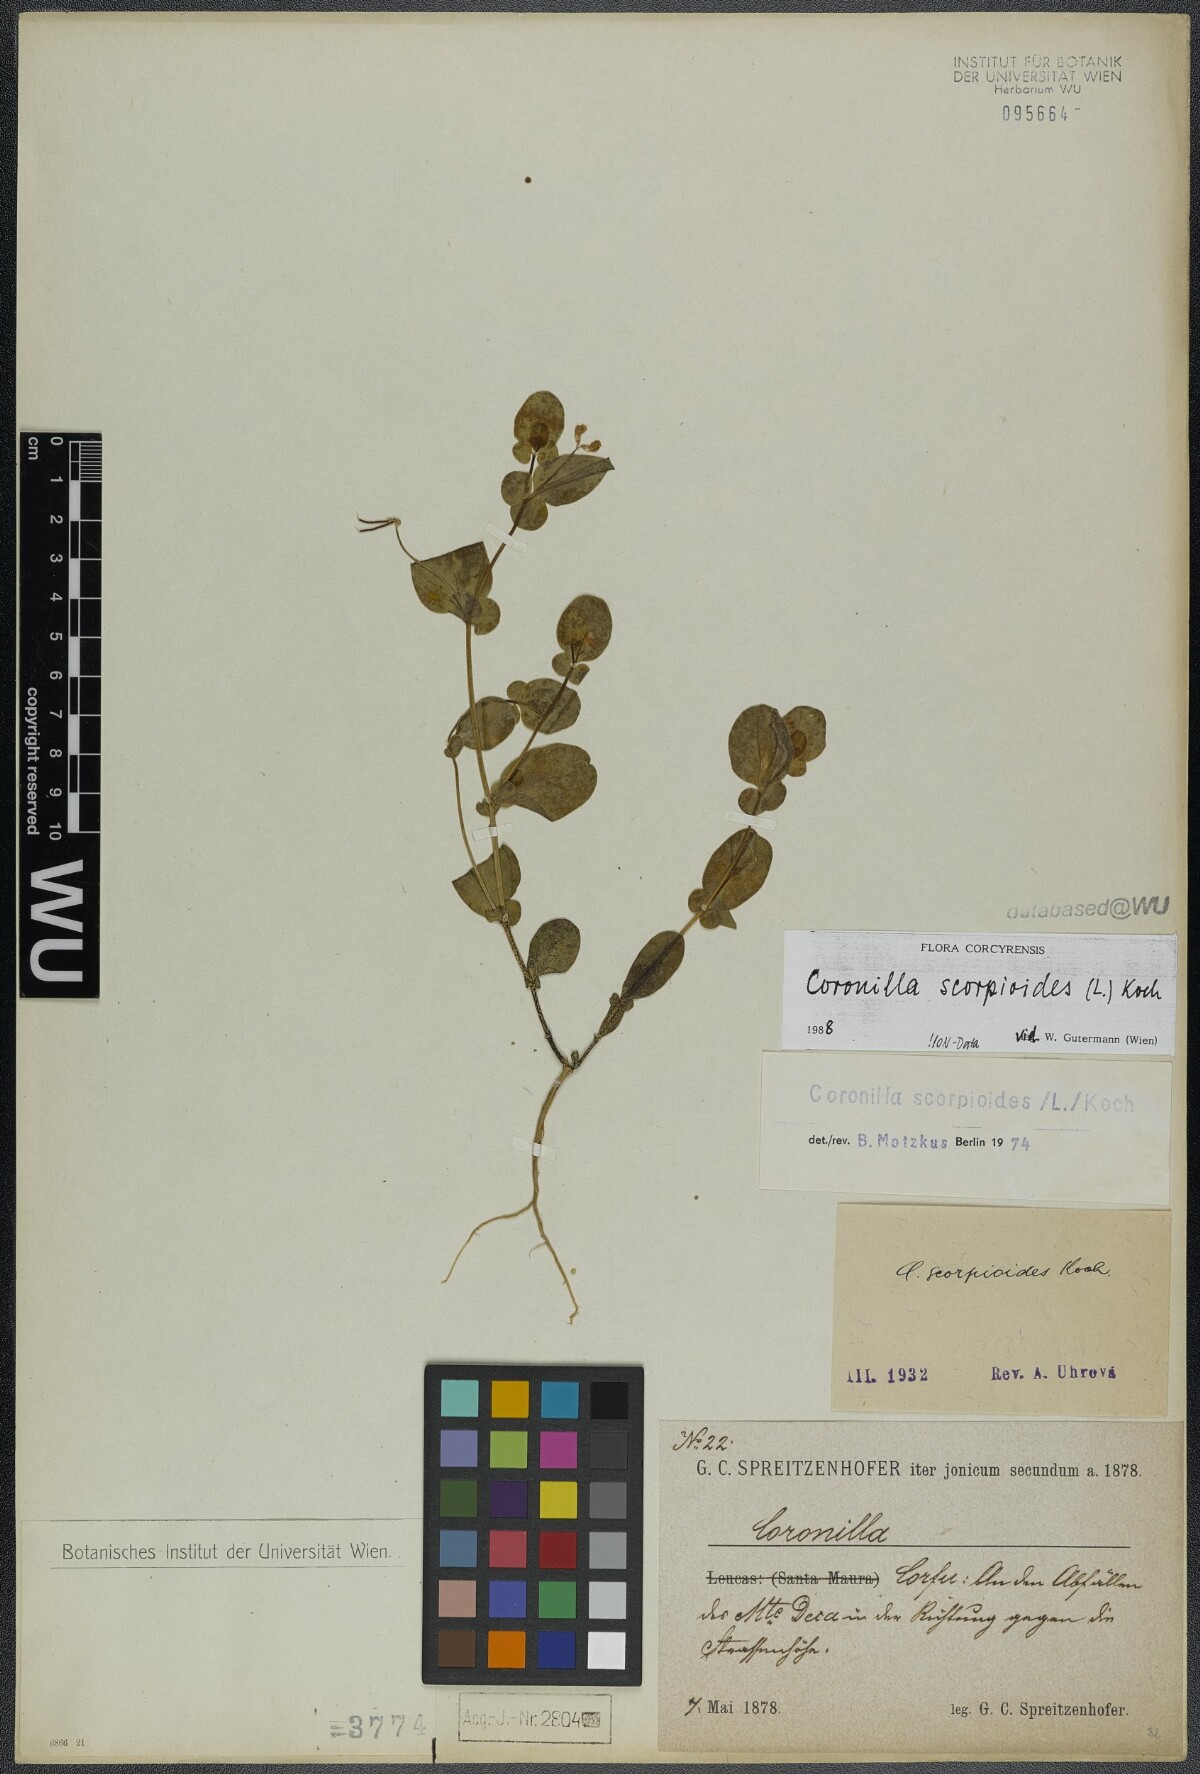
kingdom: Plantae
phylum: Tracheophyta
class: Magnoliopsida
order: Fabales
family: Fabaceae
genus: Coronilla
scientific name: Coronilla scorpioides
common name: Annual scorpion-vetch
